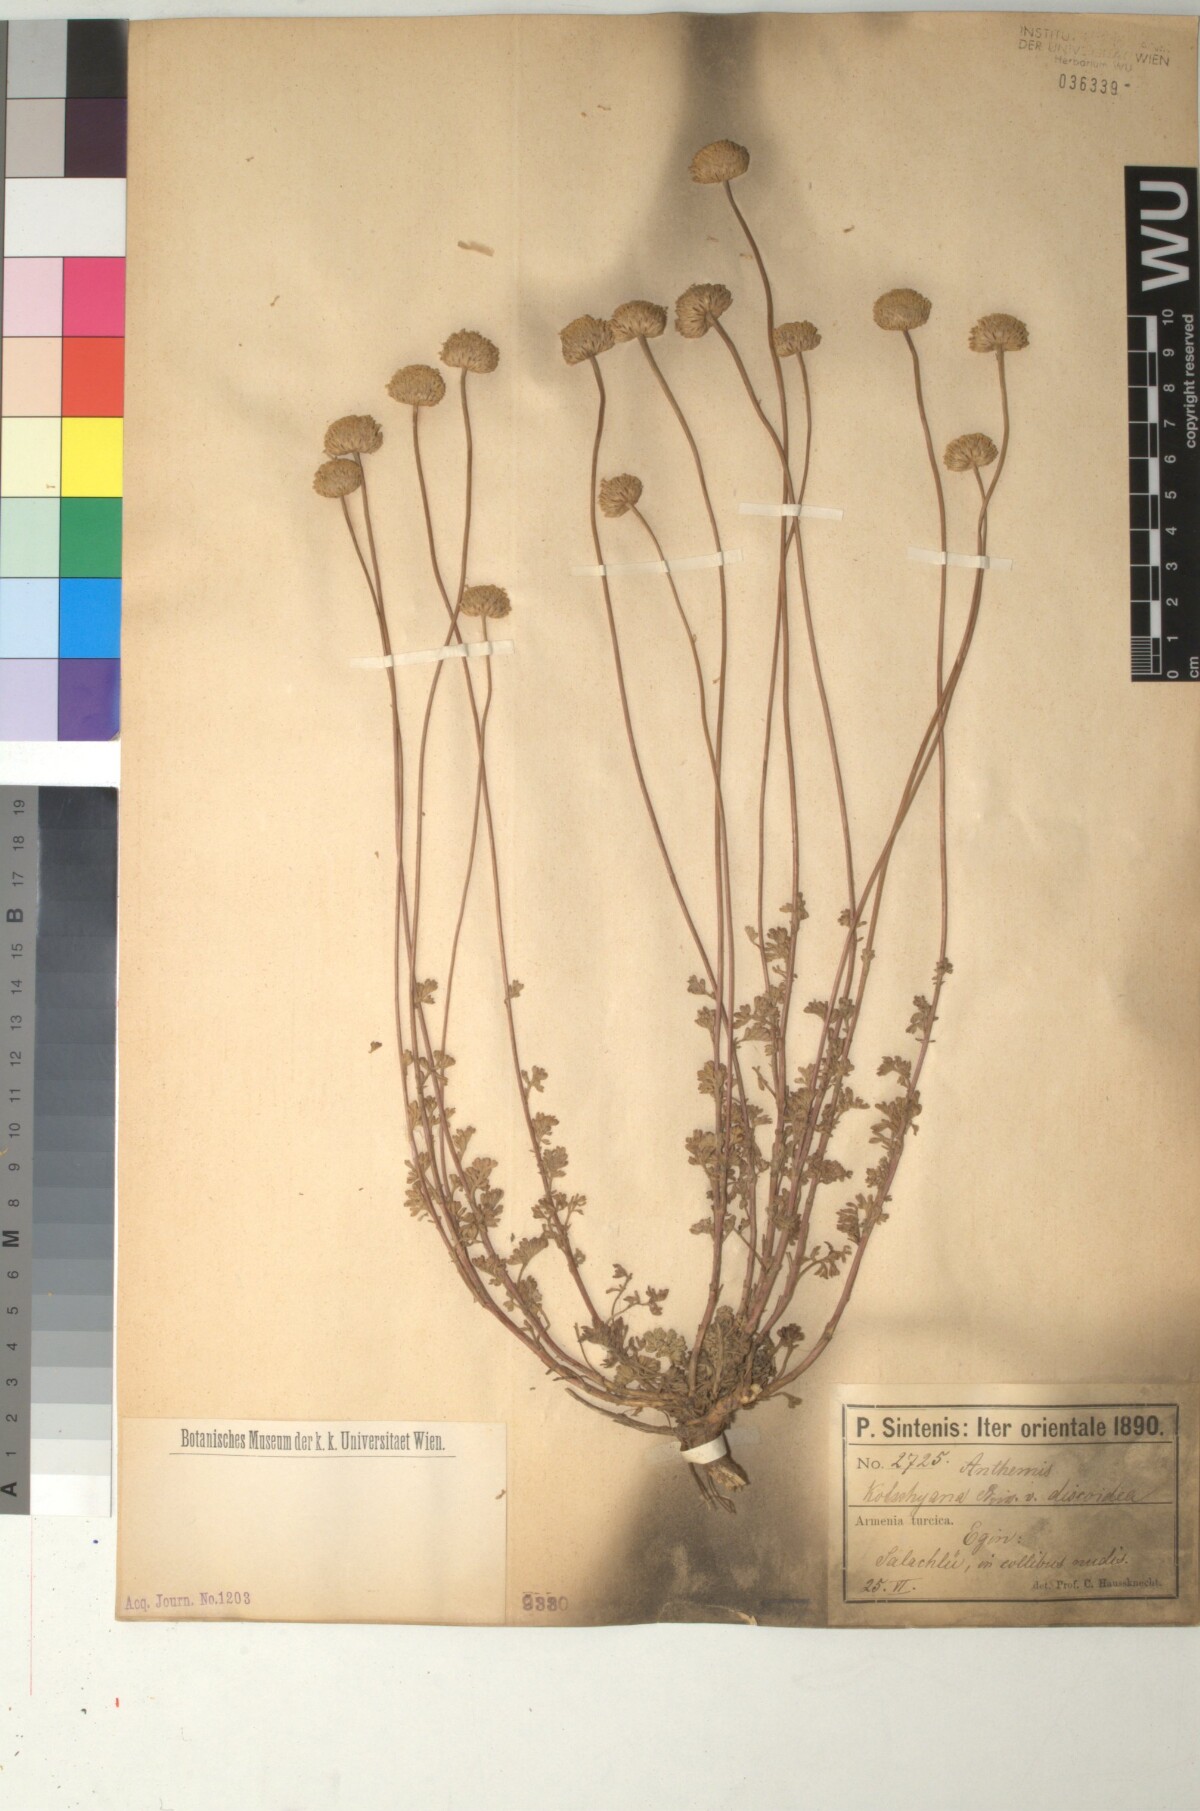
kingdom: Plantae
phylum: Tracheophyta
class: Magnoliopsida
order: Asterales
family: Asteraceae
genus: Anthemis
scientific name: Anthemis kotschyana
